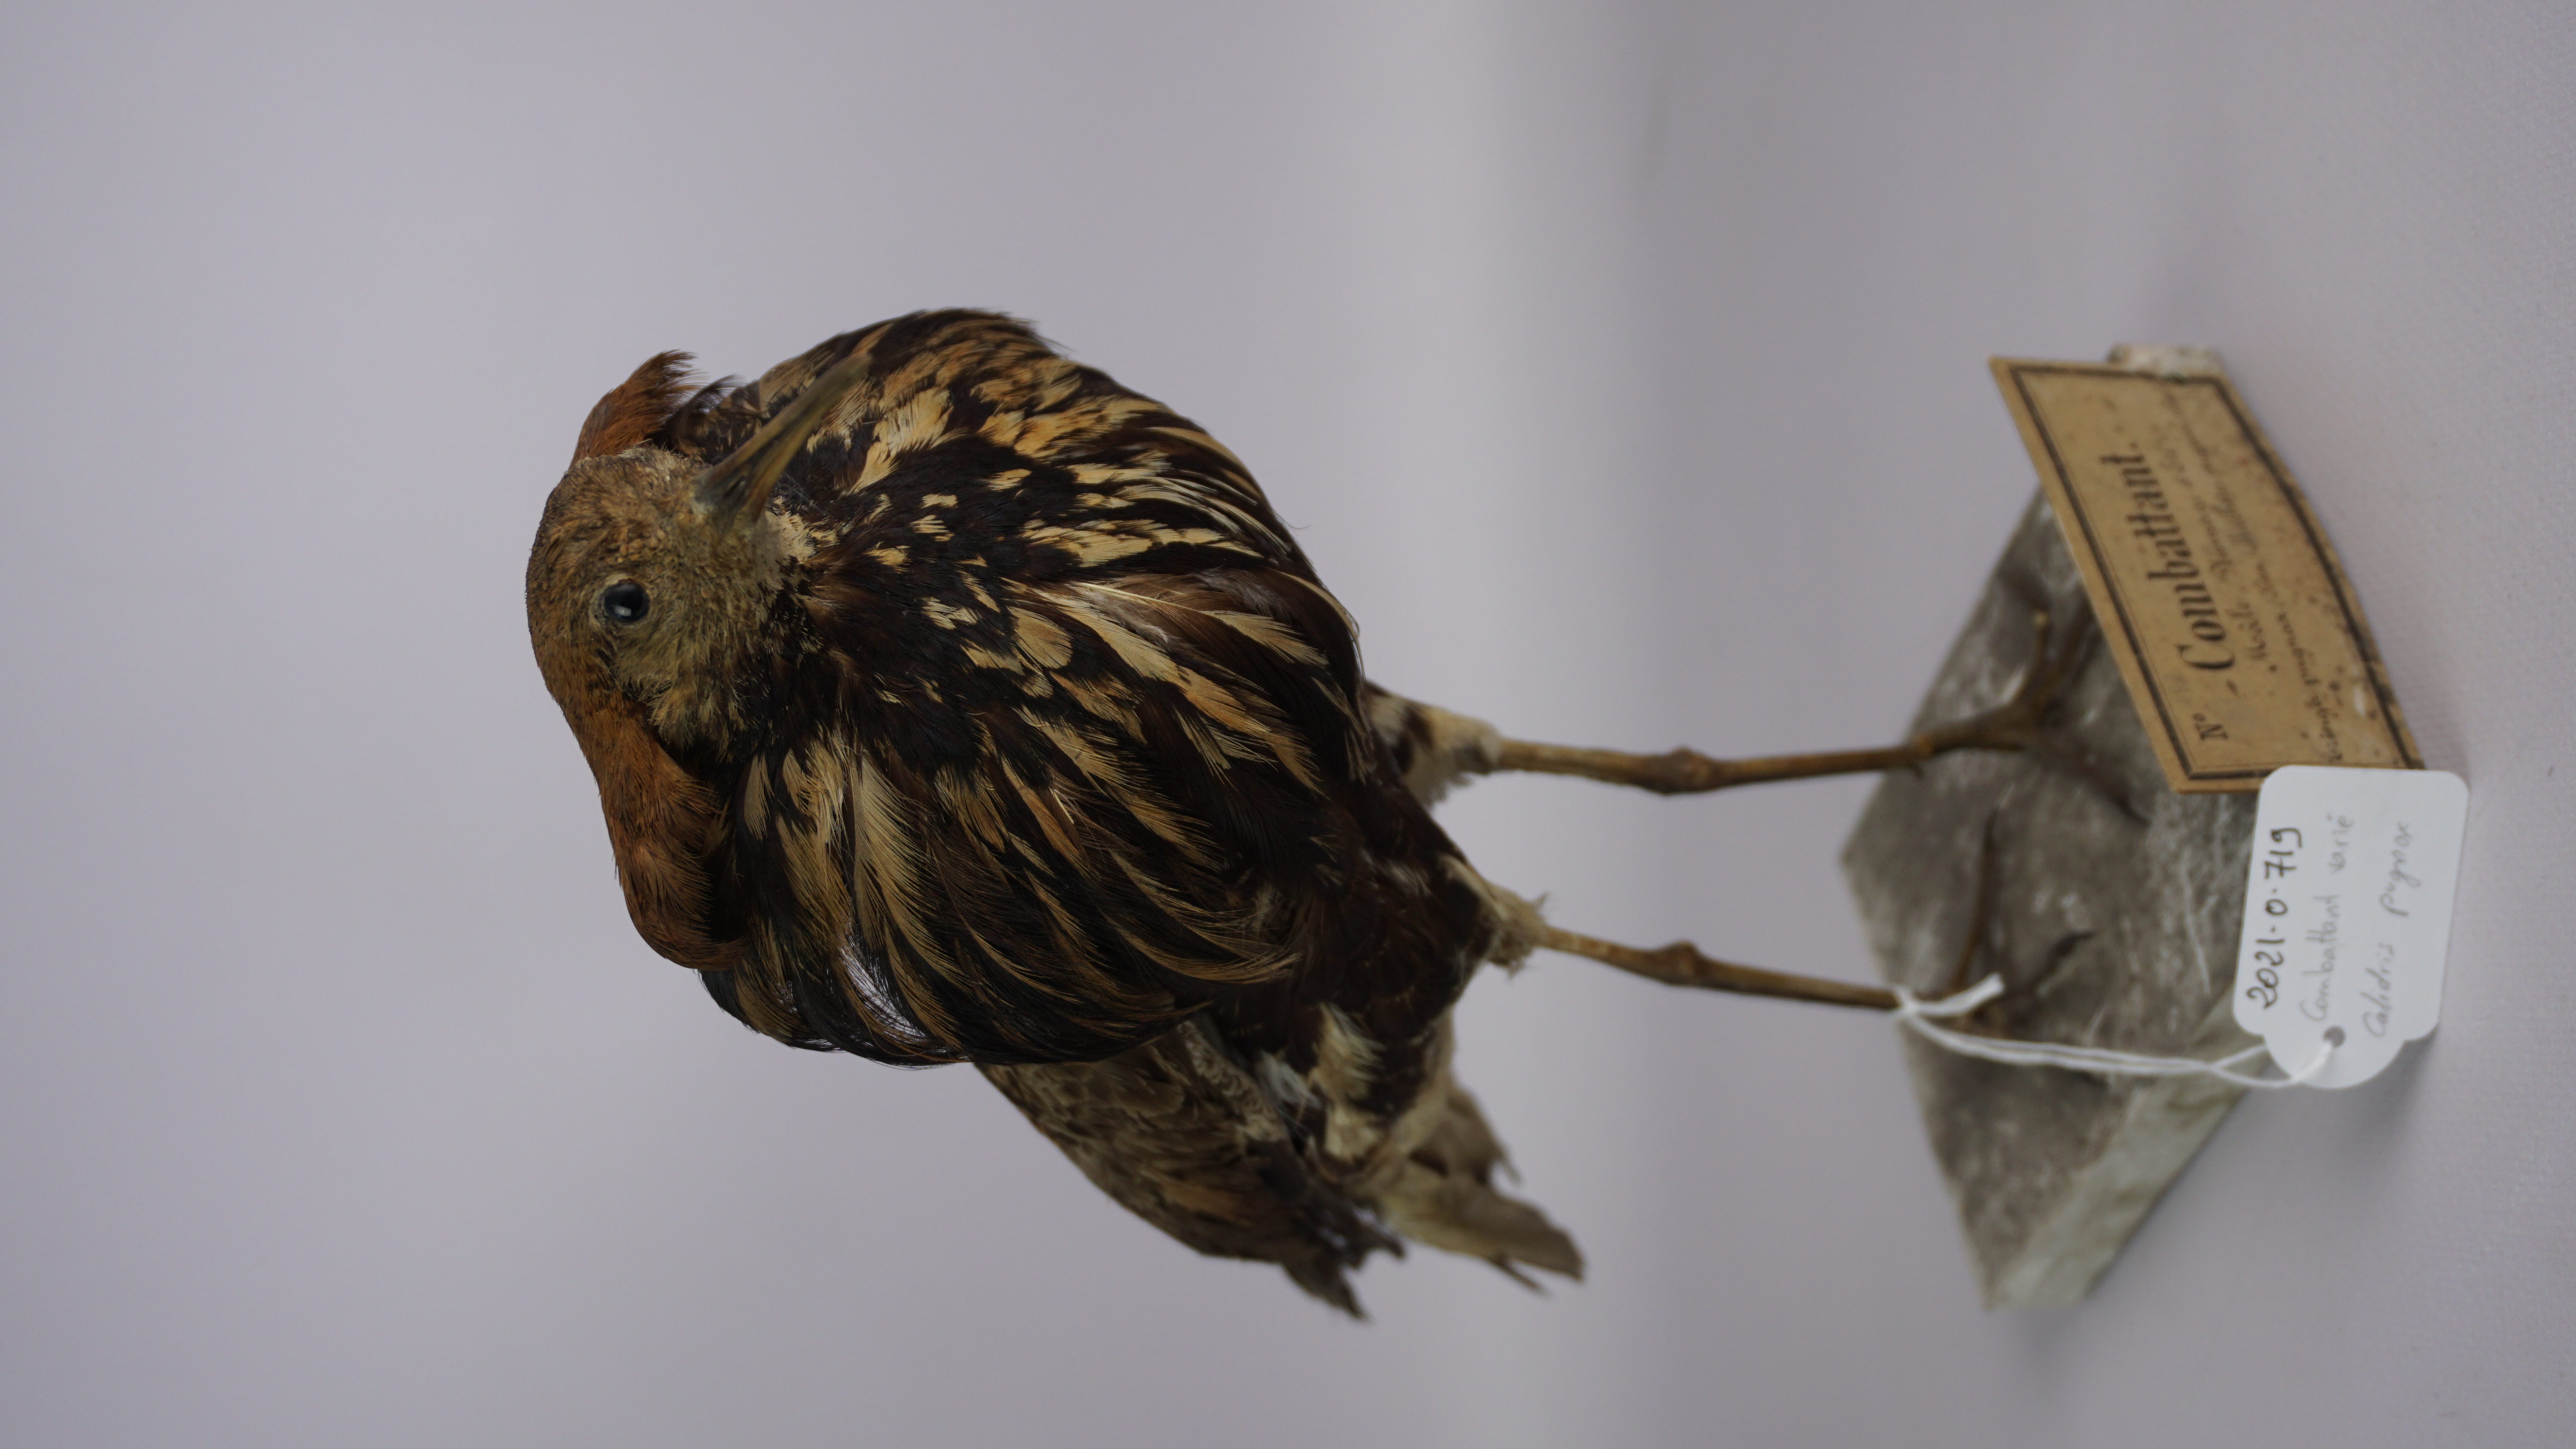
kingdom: Animalia
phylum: Chordata
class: Aves
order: Charadriiformes
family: Scolopacidae
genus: Calidris
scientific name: Calidris pugnax
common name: Ruff
